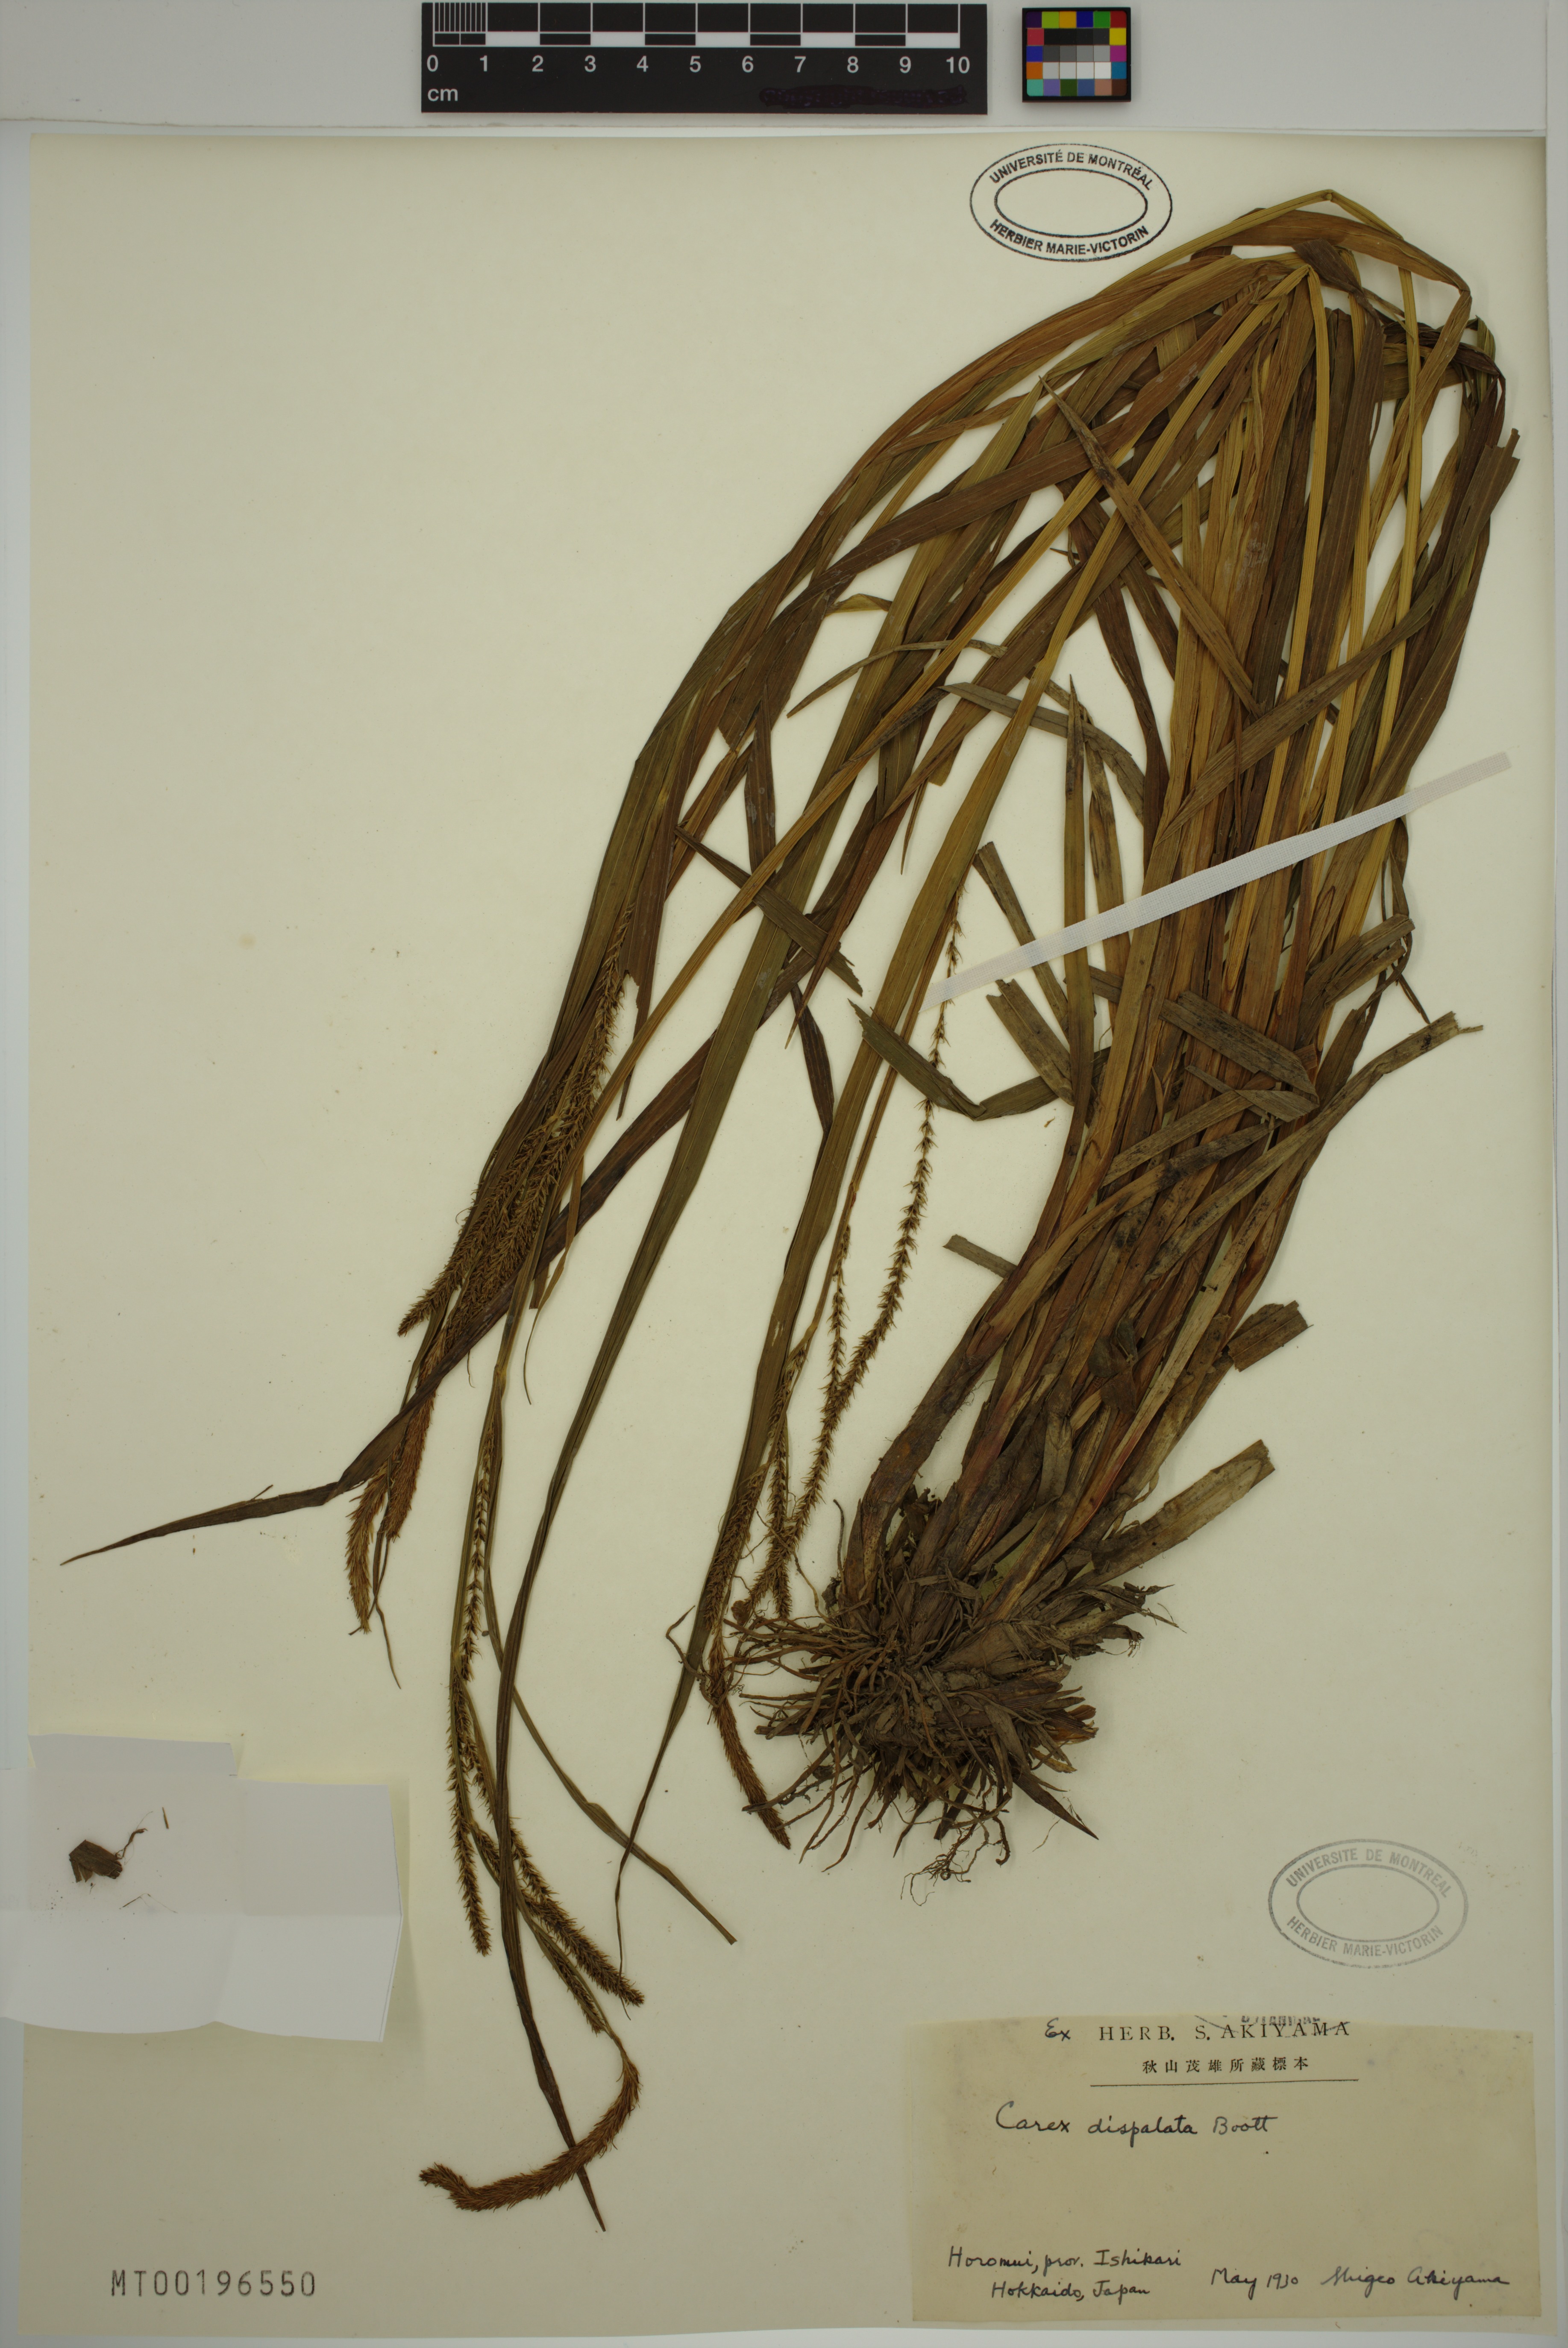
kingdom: Plantae
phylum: Tracheophyta
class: Liliopsida
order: Poales
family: Cyperaceae
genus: Carex
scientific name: Carex dispalata
